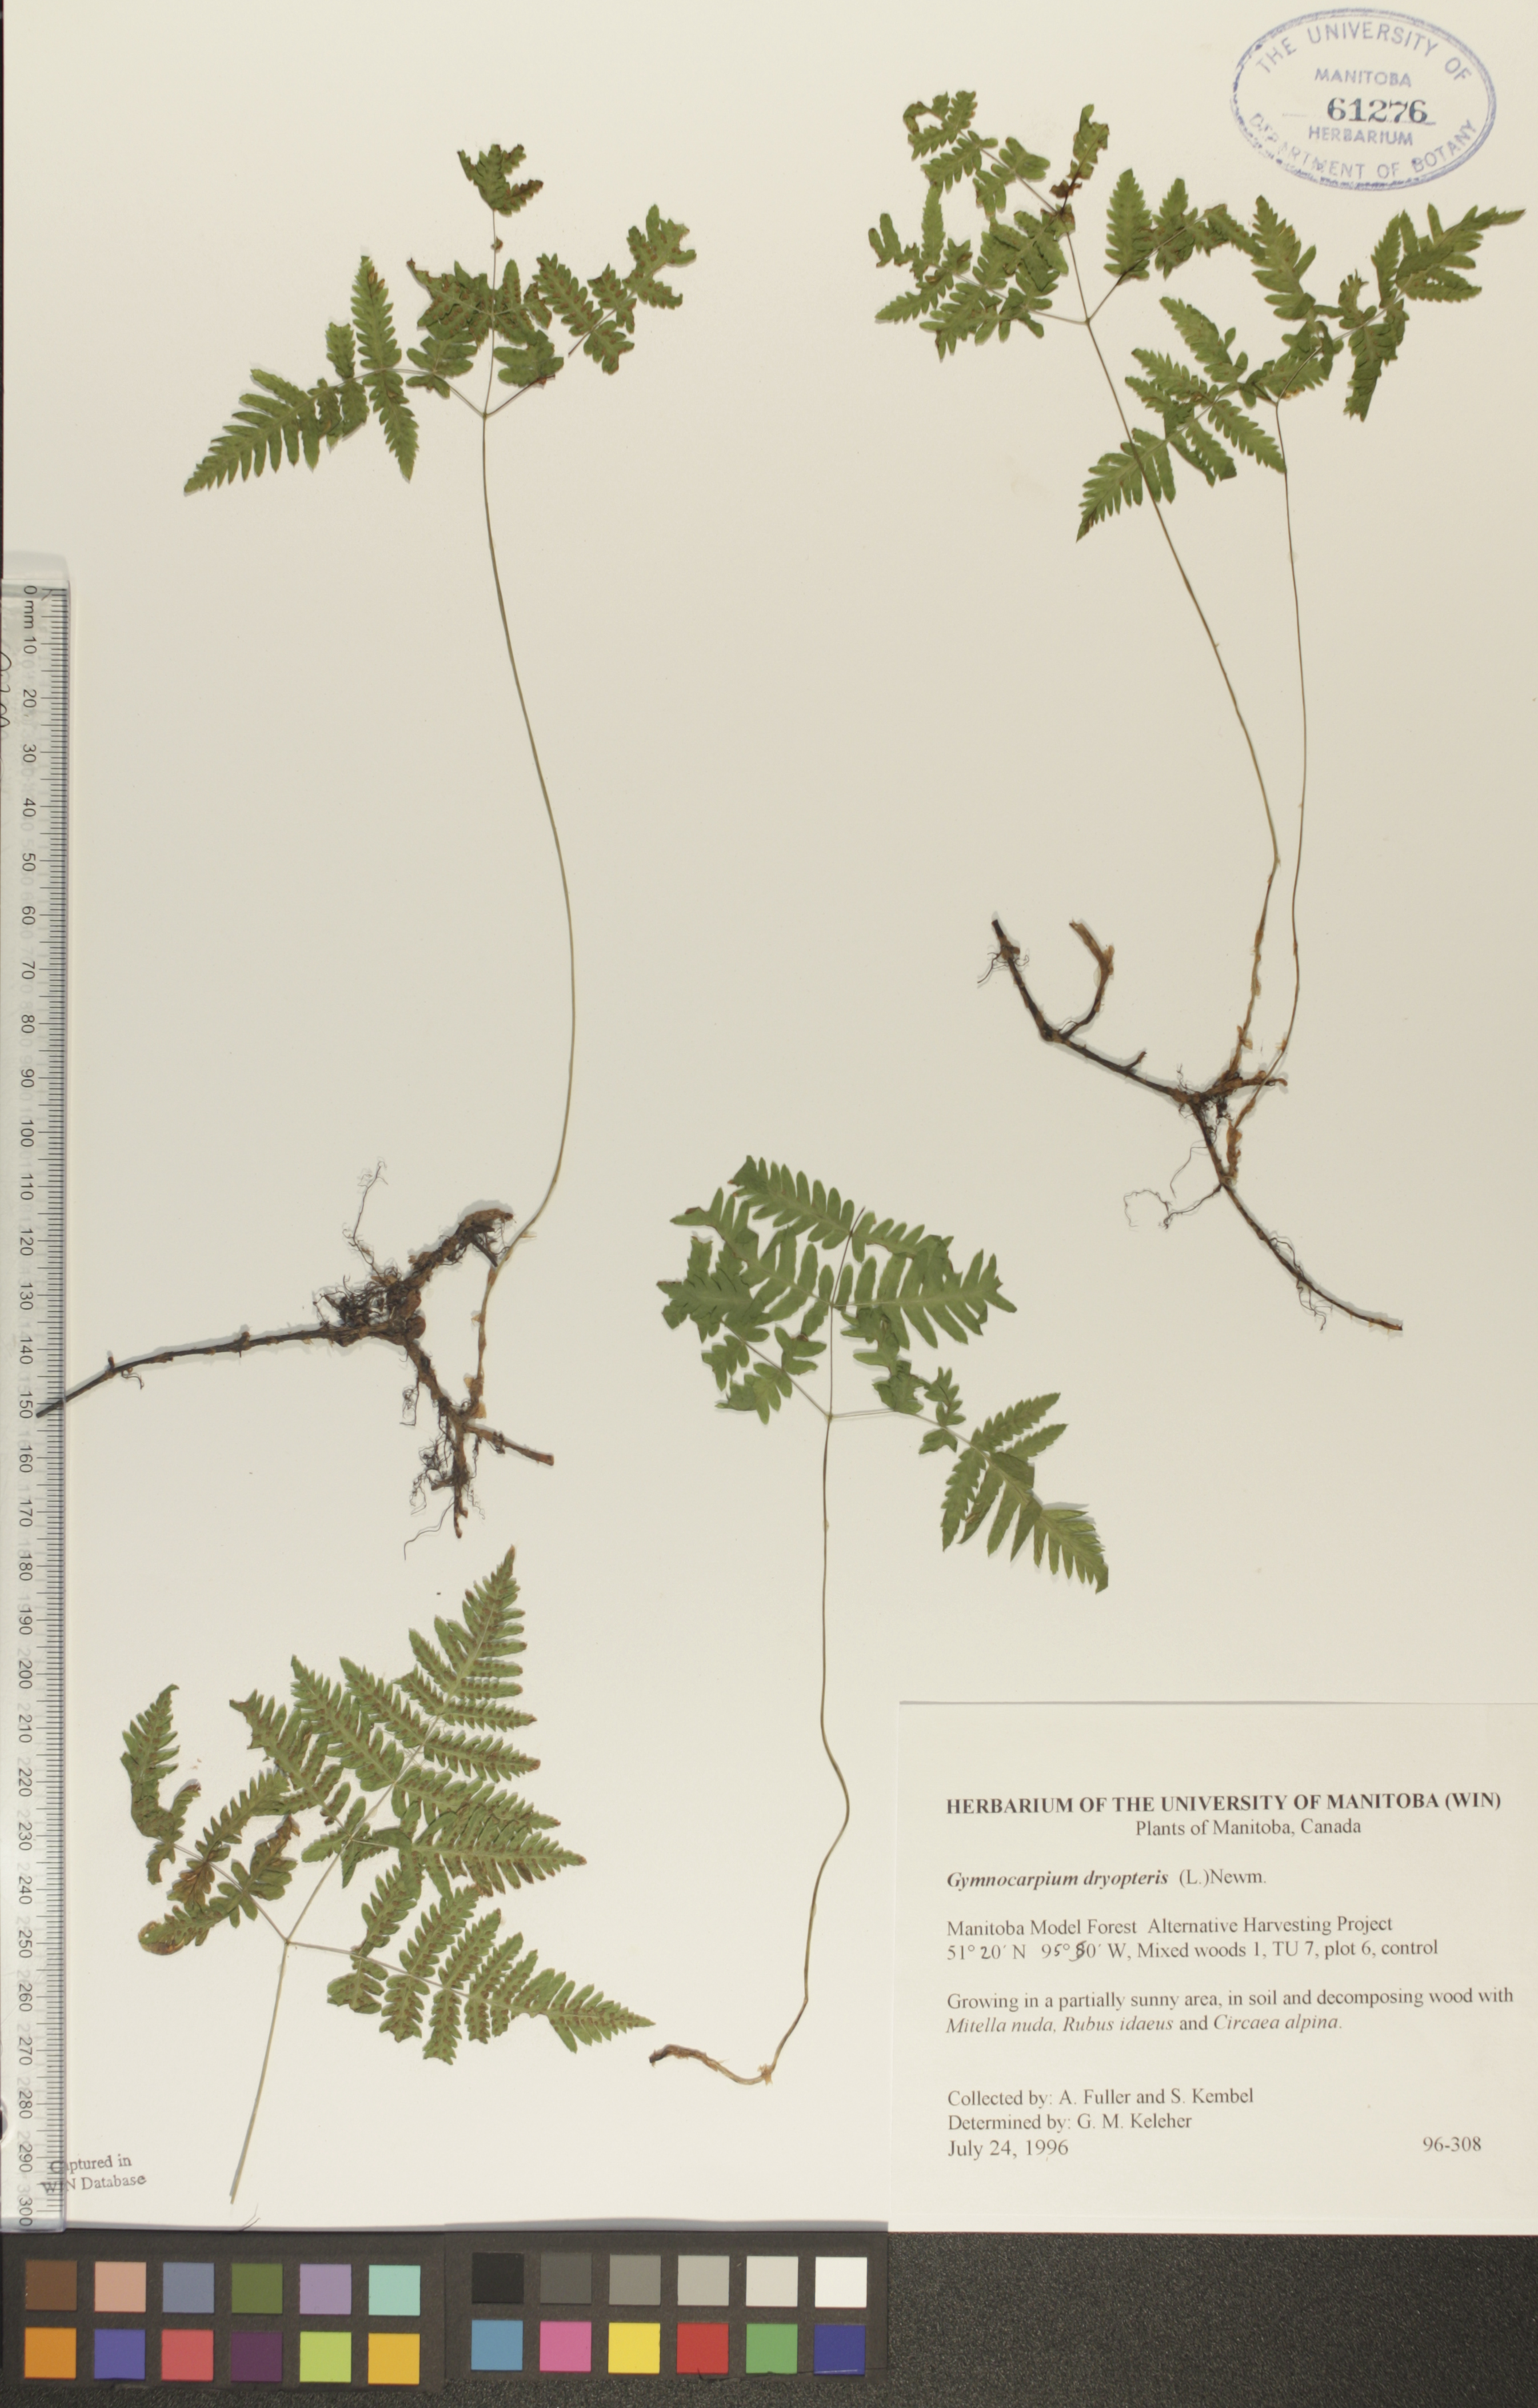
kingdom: Plantae
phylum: Tracheophyta
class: Polypodiopsida
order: Polypodiales
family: Cystopteridaceae
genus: Gymnocarpium
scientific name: Gymnocarpium dryopteris
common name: Oak fern
